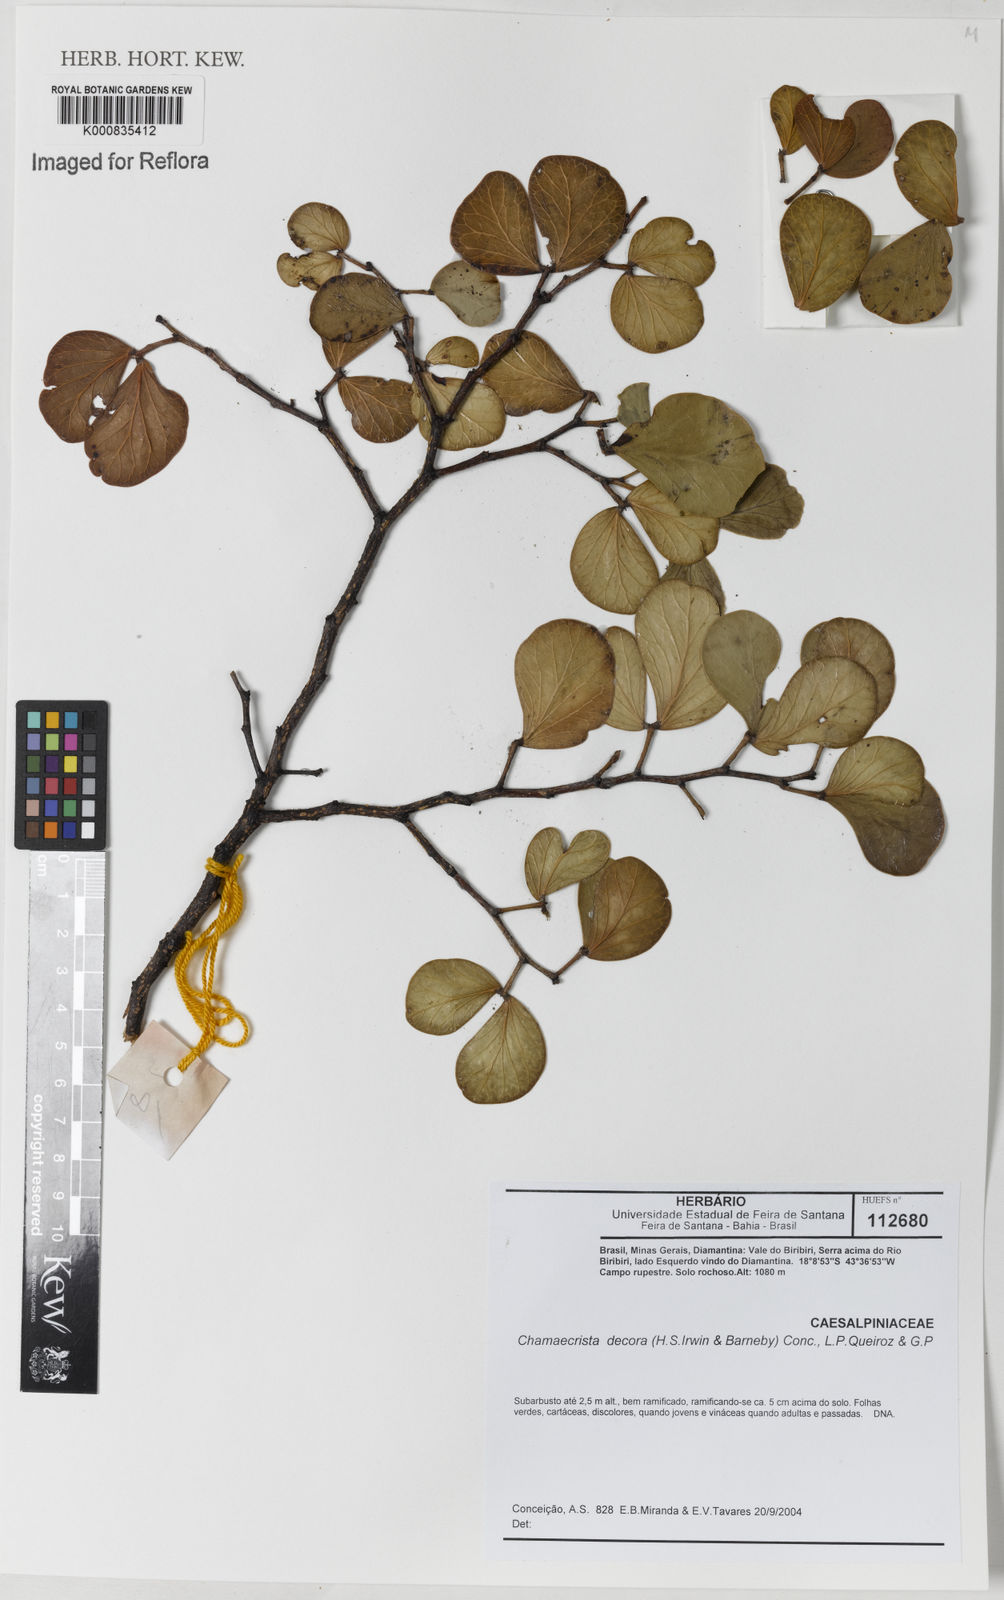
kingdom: Plantae
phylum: Tracheophyta
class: Magnoliopsida
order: Fabales
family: Fabaceae
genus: Chamaecrista
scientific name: Chamaecrista decora
